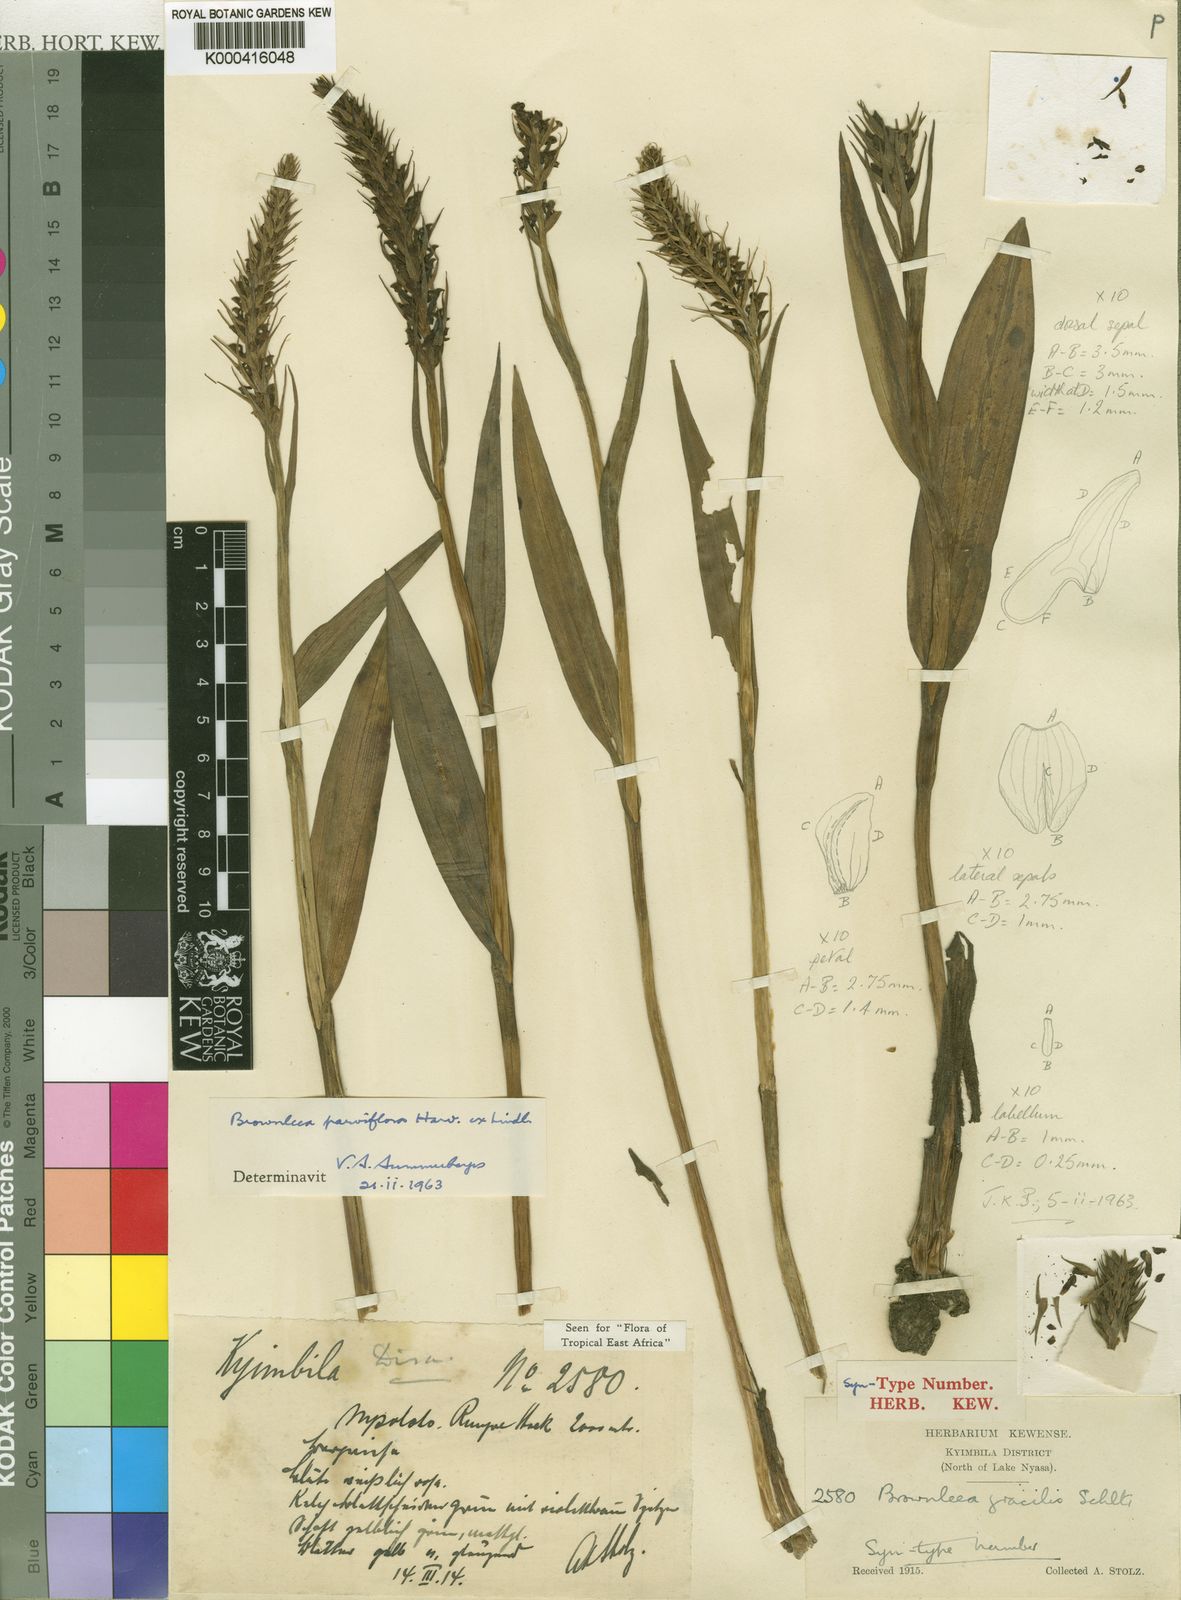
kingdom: Plantae
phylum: Tracheophyta
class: Liliopsida
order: Asparagales
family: Orchidaceae
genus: Brownleea
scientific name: Brownleea parviflora
